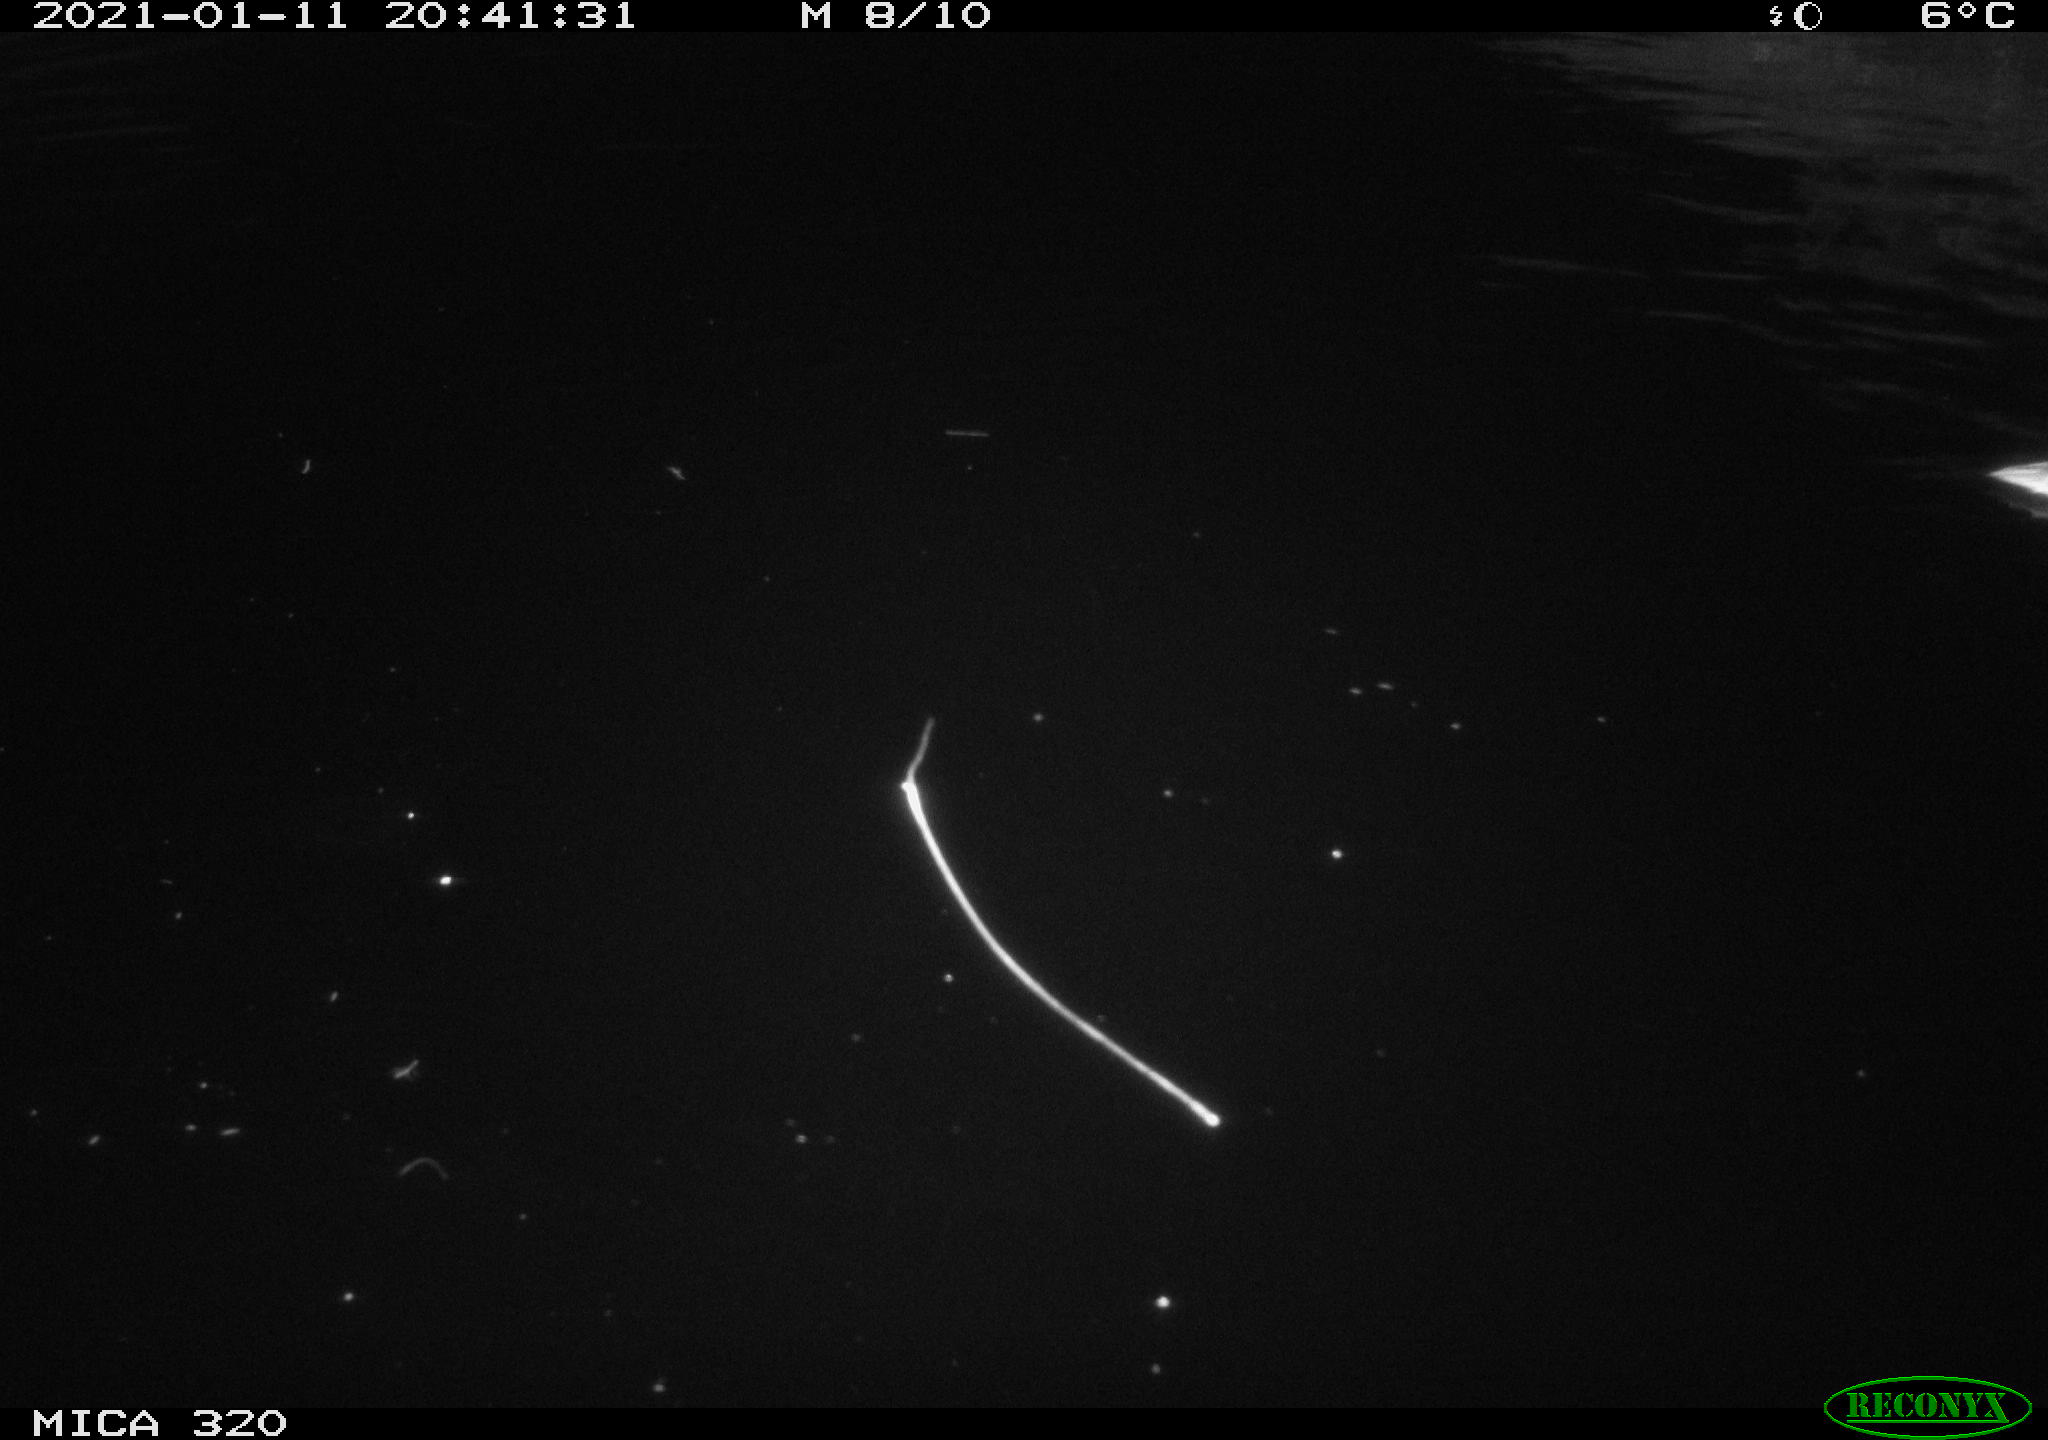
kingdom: Animalia
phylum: Chordata
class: Aves
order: Anseriformes
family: Anatidae
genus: Anas
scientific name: Anas platyrhynchos
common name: Mallard
